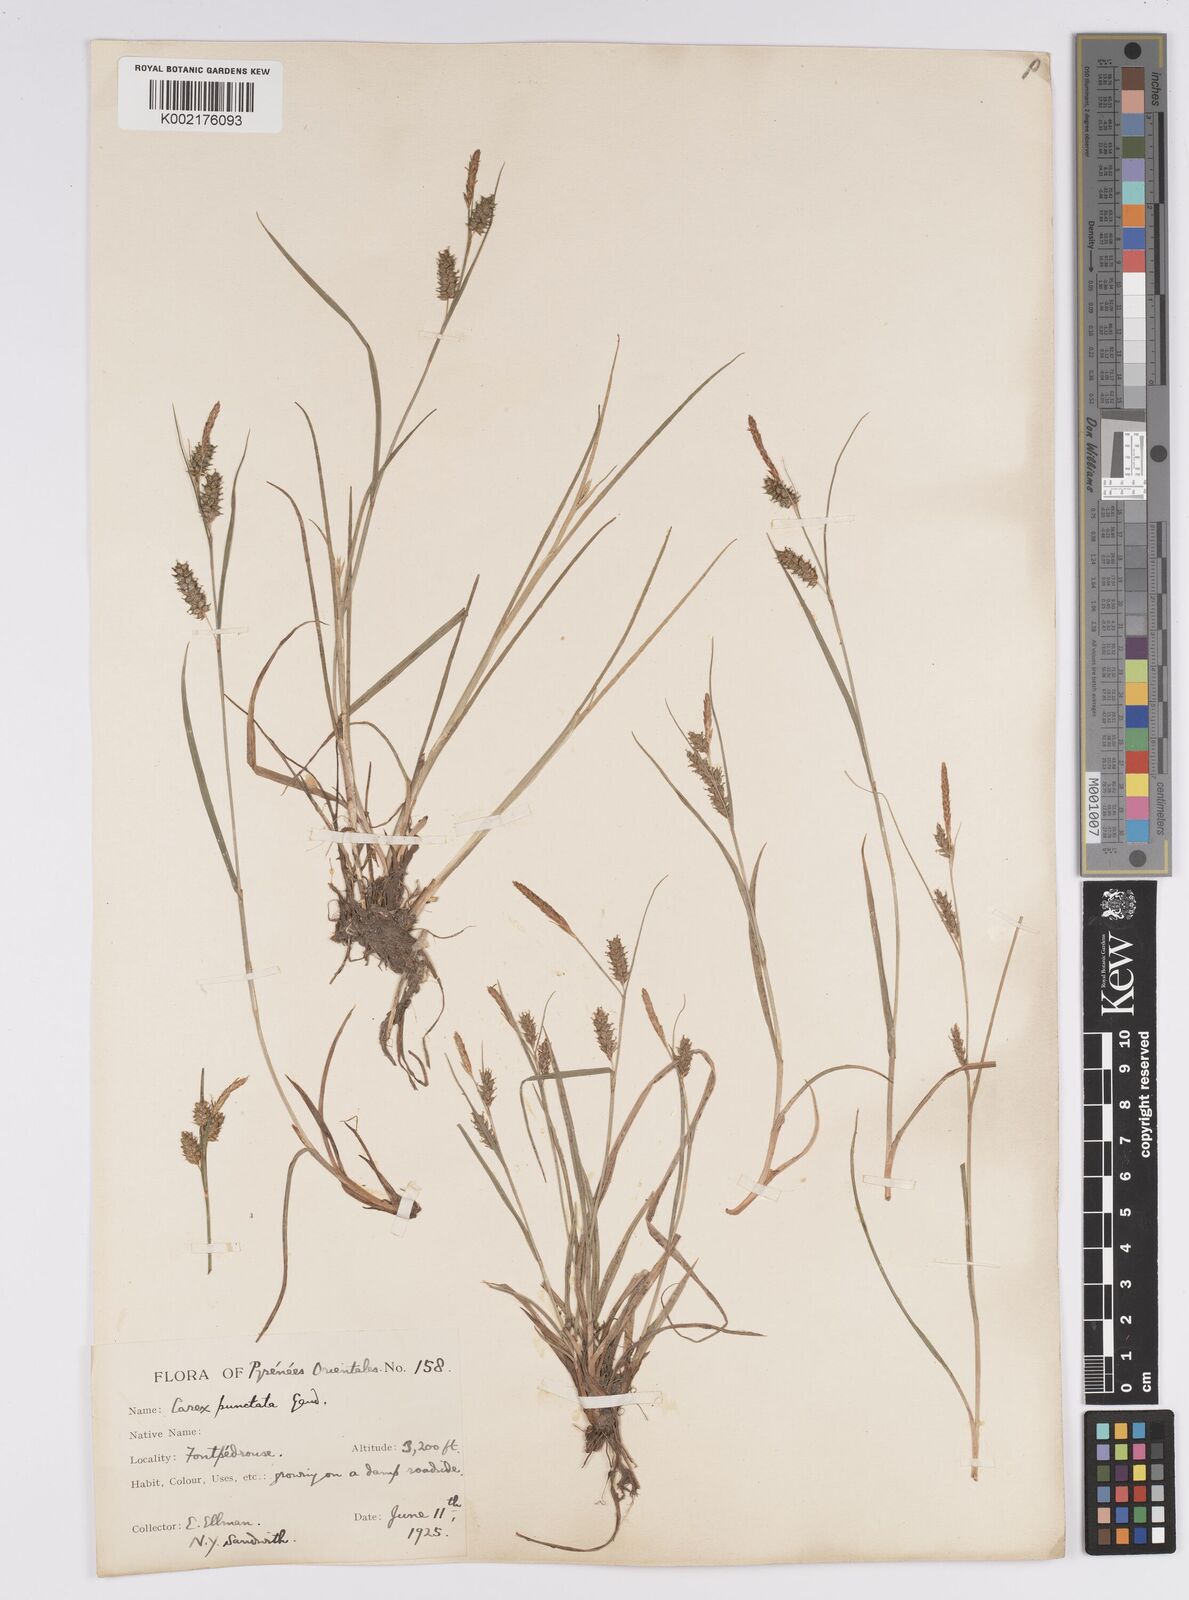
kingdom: Plantae
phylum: Tracheophyta
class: Liliopsida
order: Poales
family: Cyperaceae
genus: Carex
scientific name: Carex punctata
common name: Dotted sedge
